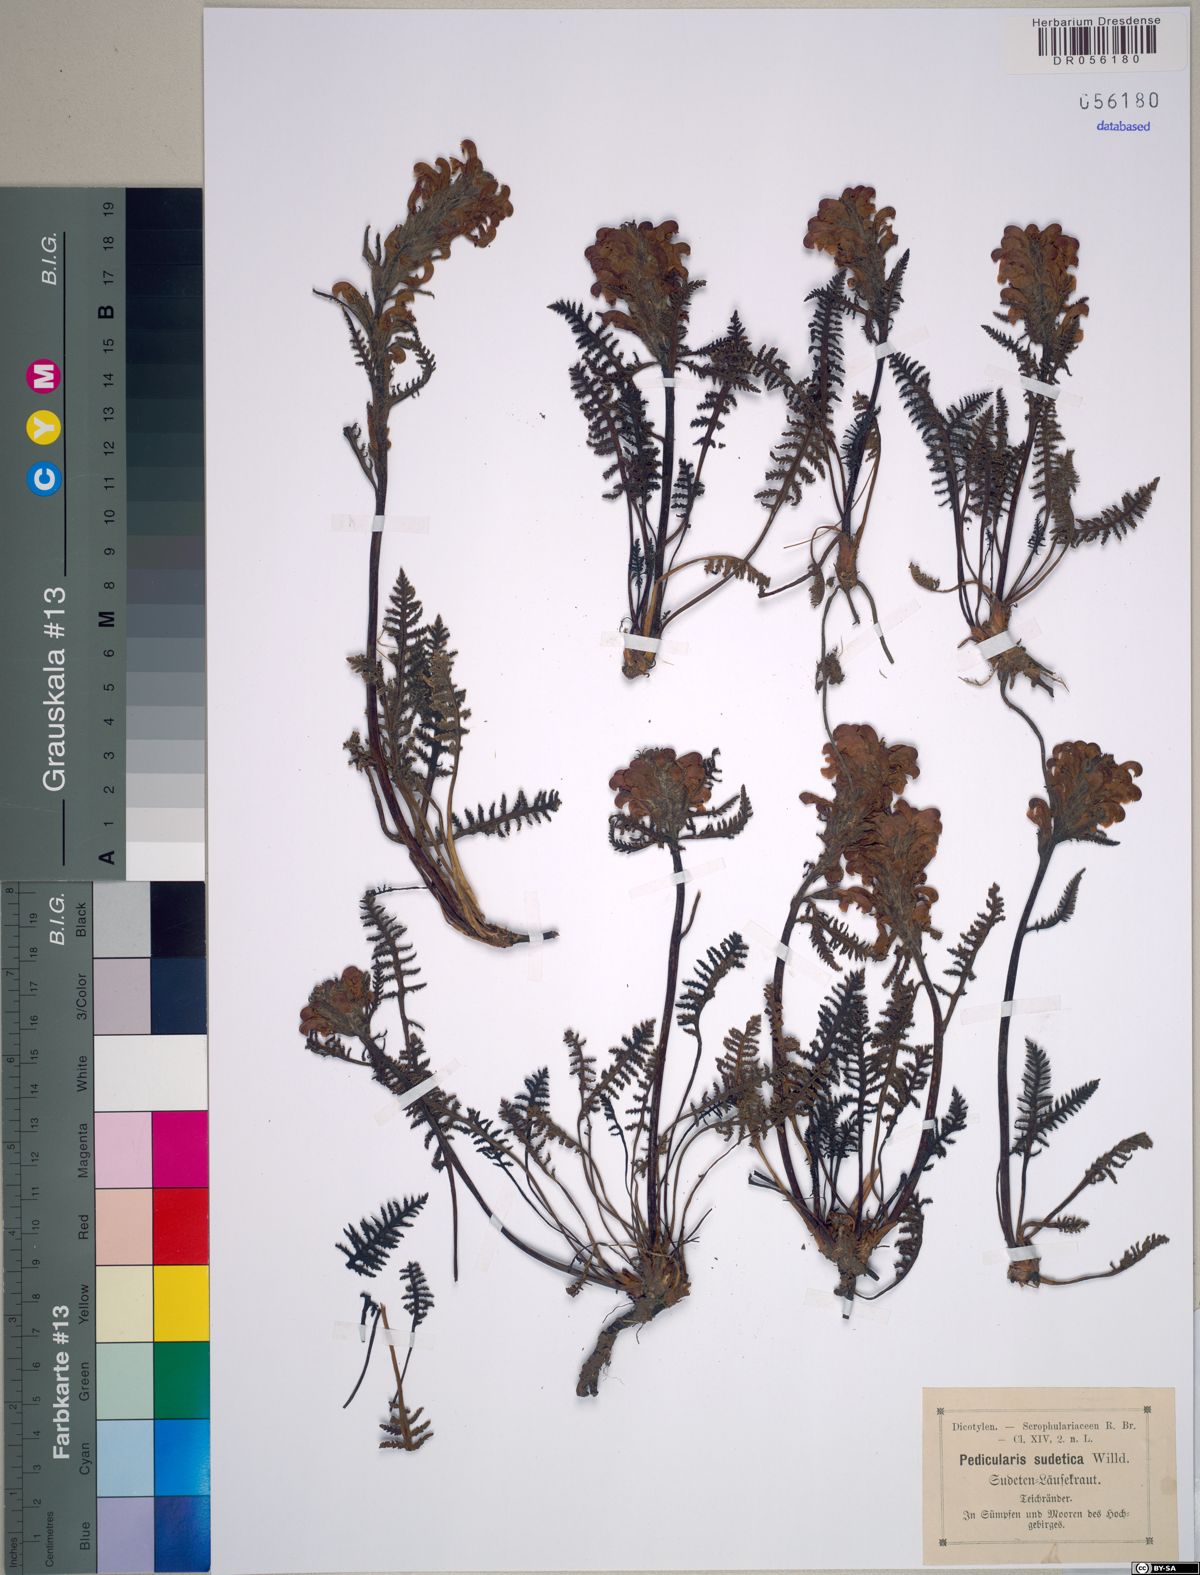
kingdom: Plantae
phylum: Tracheophyta
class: Magnoliopsida
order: Lamiales
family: Orobanchaceae
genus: Pedicularis
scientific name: Pedicularis sudetica
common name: Sudeten lousewort
